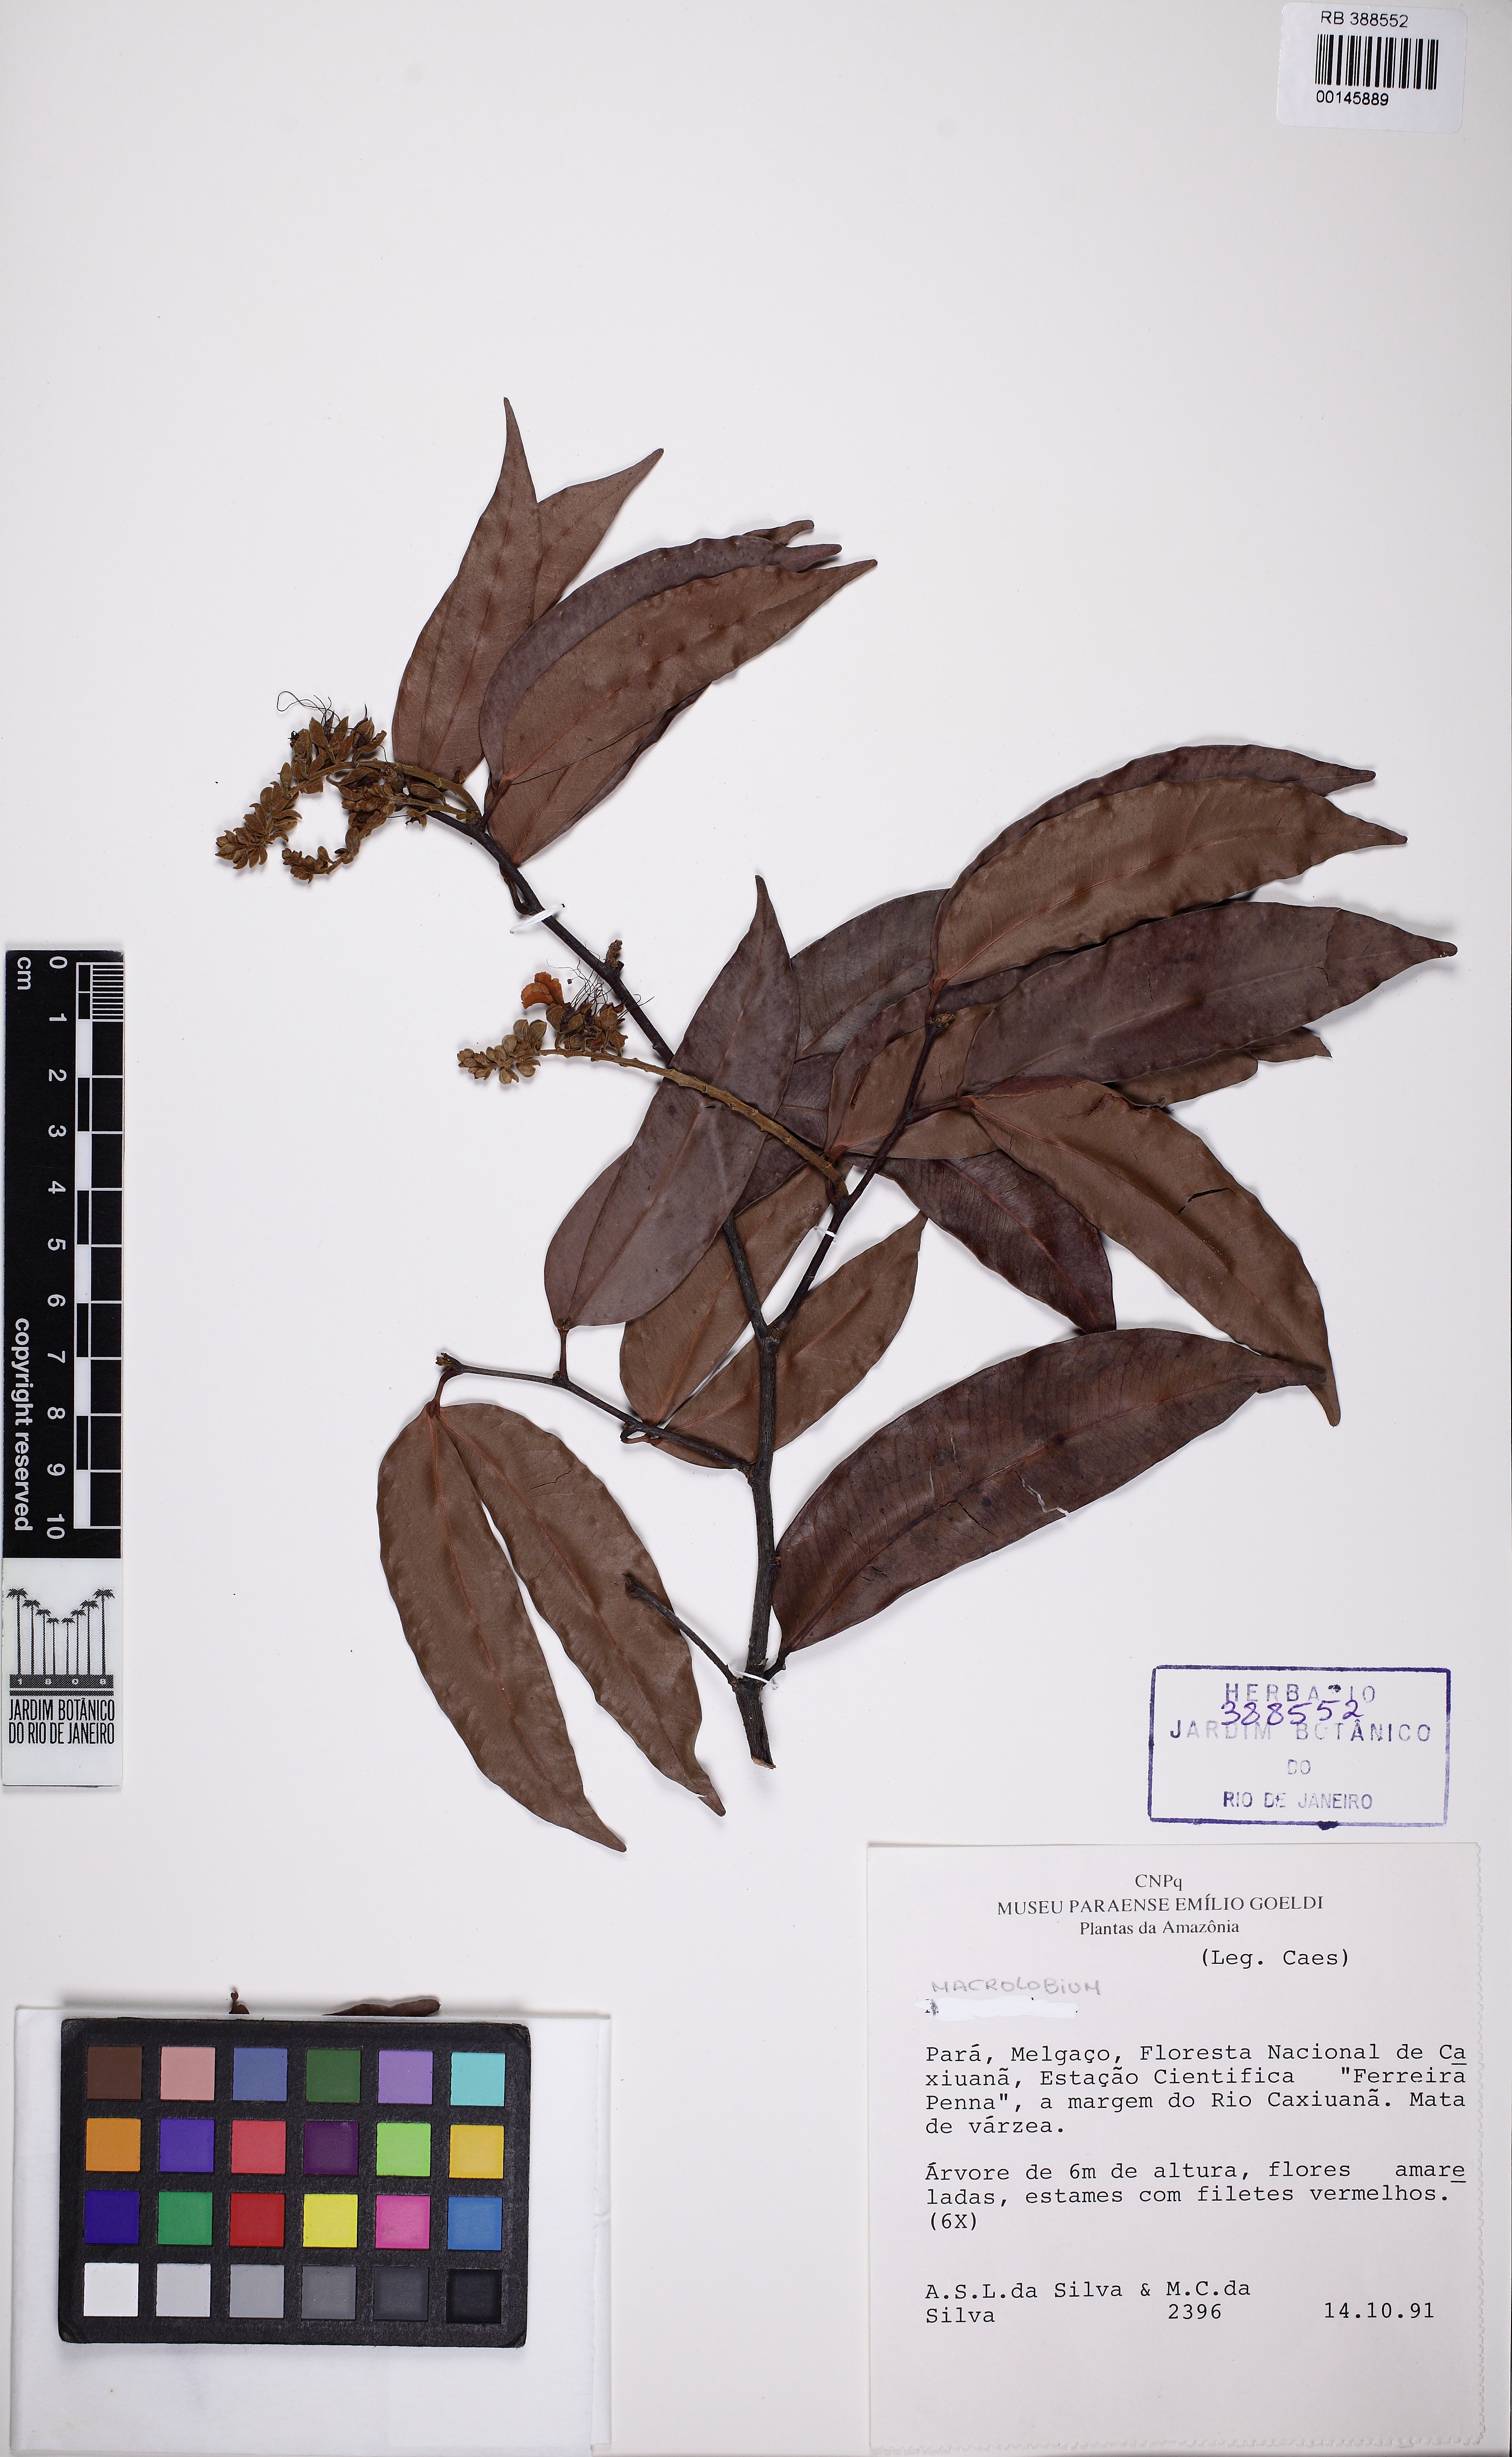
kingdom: Plantae
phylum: Tracheophyta
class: Magnoliopsida
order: Fabales
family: Fabaceae
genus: Macrolobium
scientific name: Macrolobium angustifolium
